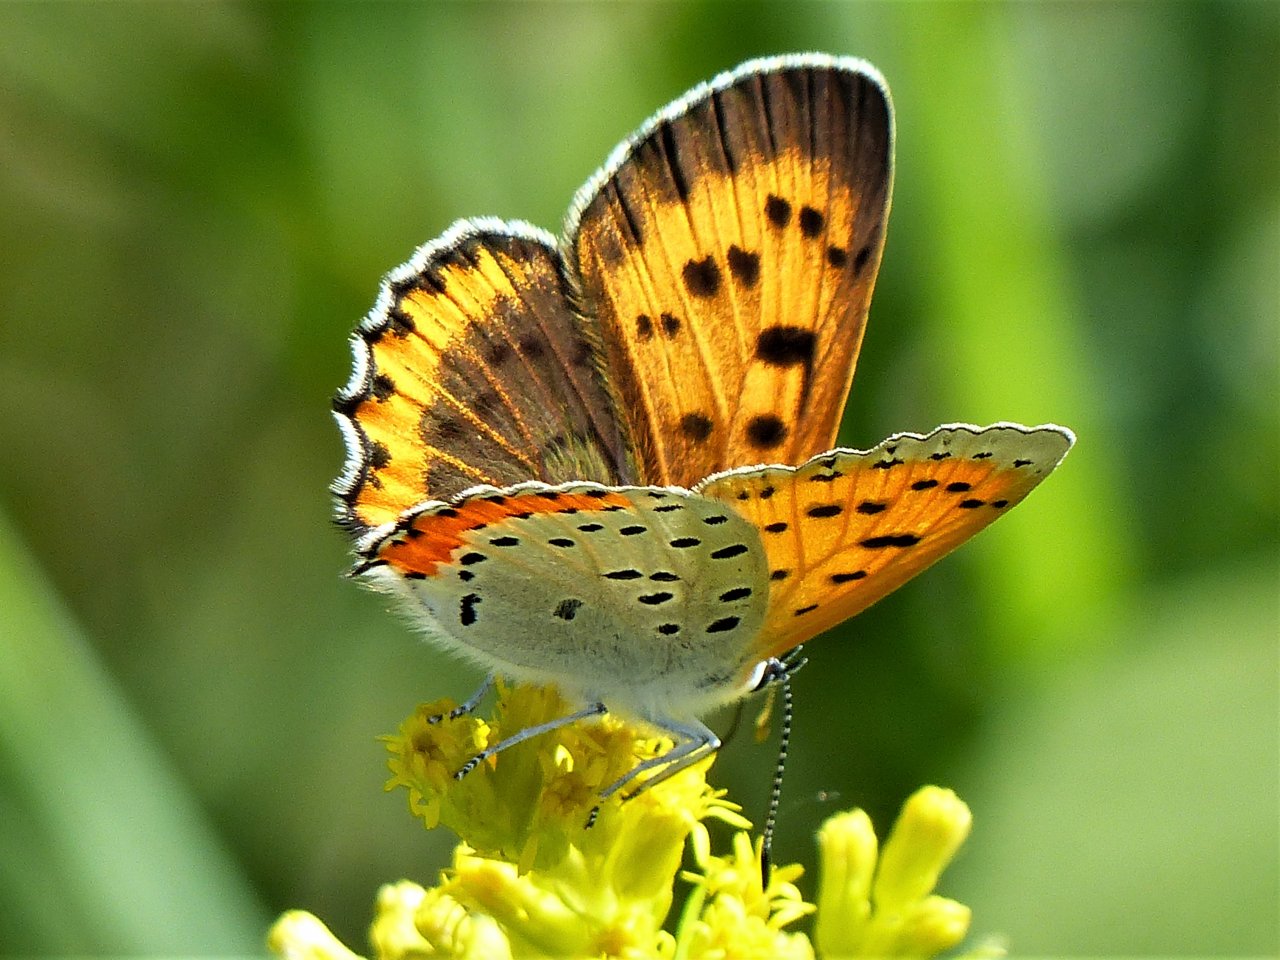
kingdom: Animalia
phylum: Arthropoda
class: Insecta
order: Lepidoptera
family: Sesiidae
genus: Sesia
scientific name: Sesia Lycaena hyllus
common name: Bronze Copper
